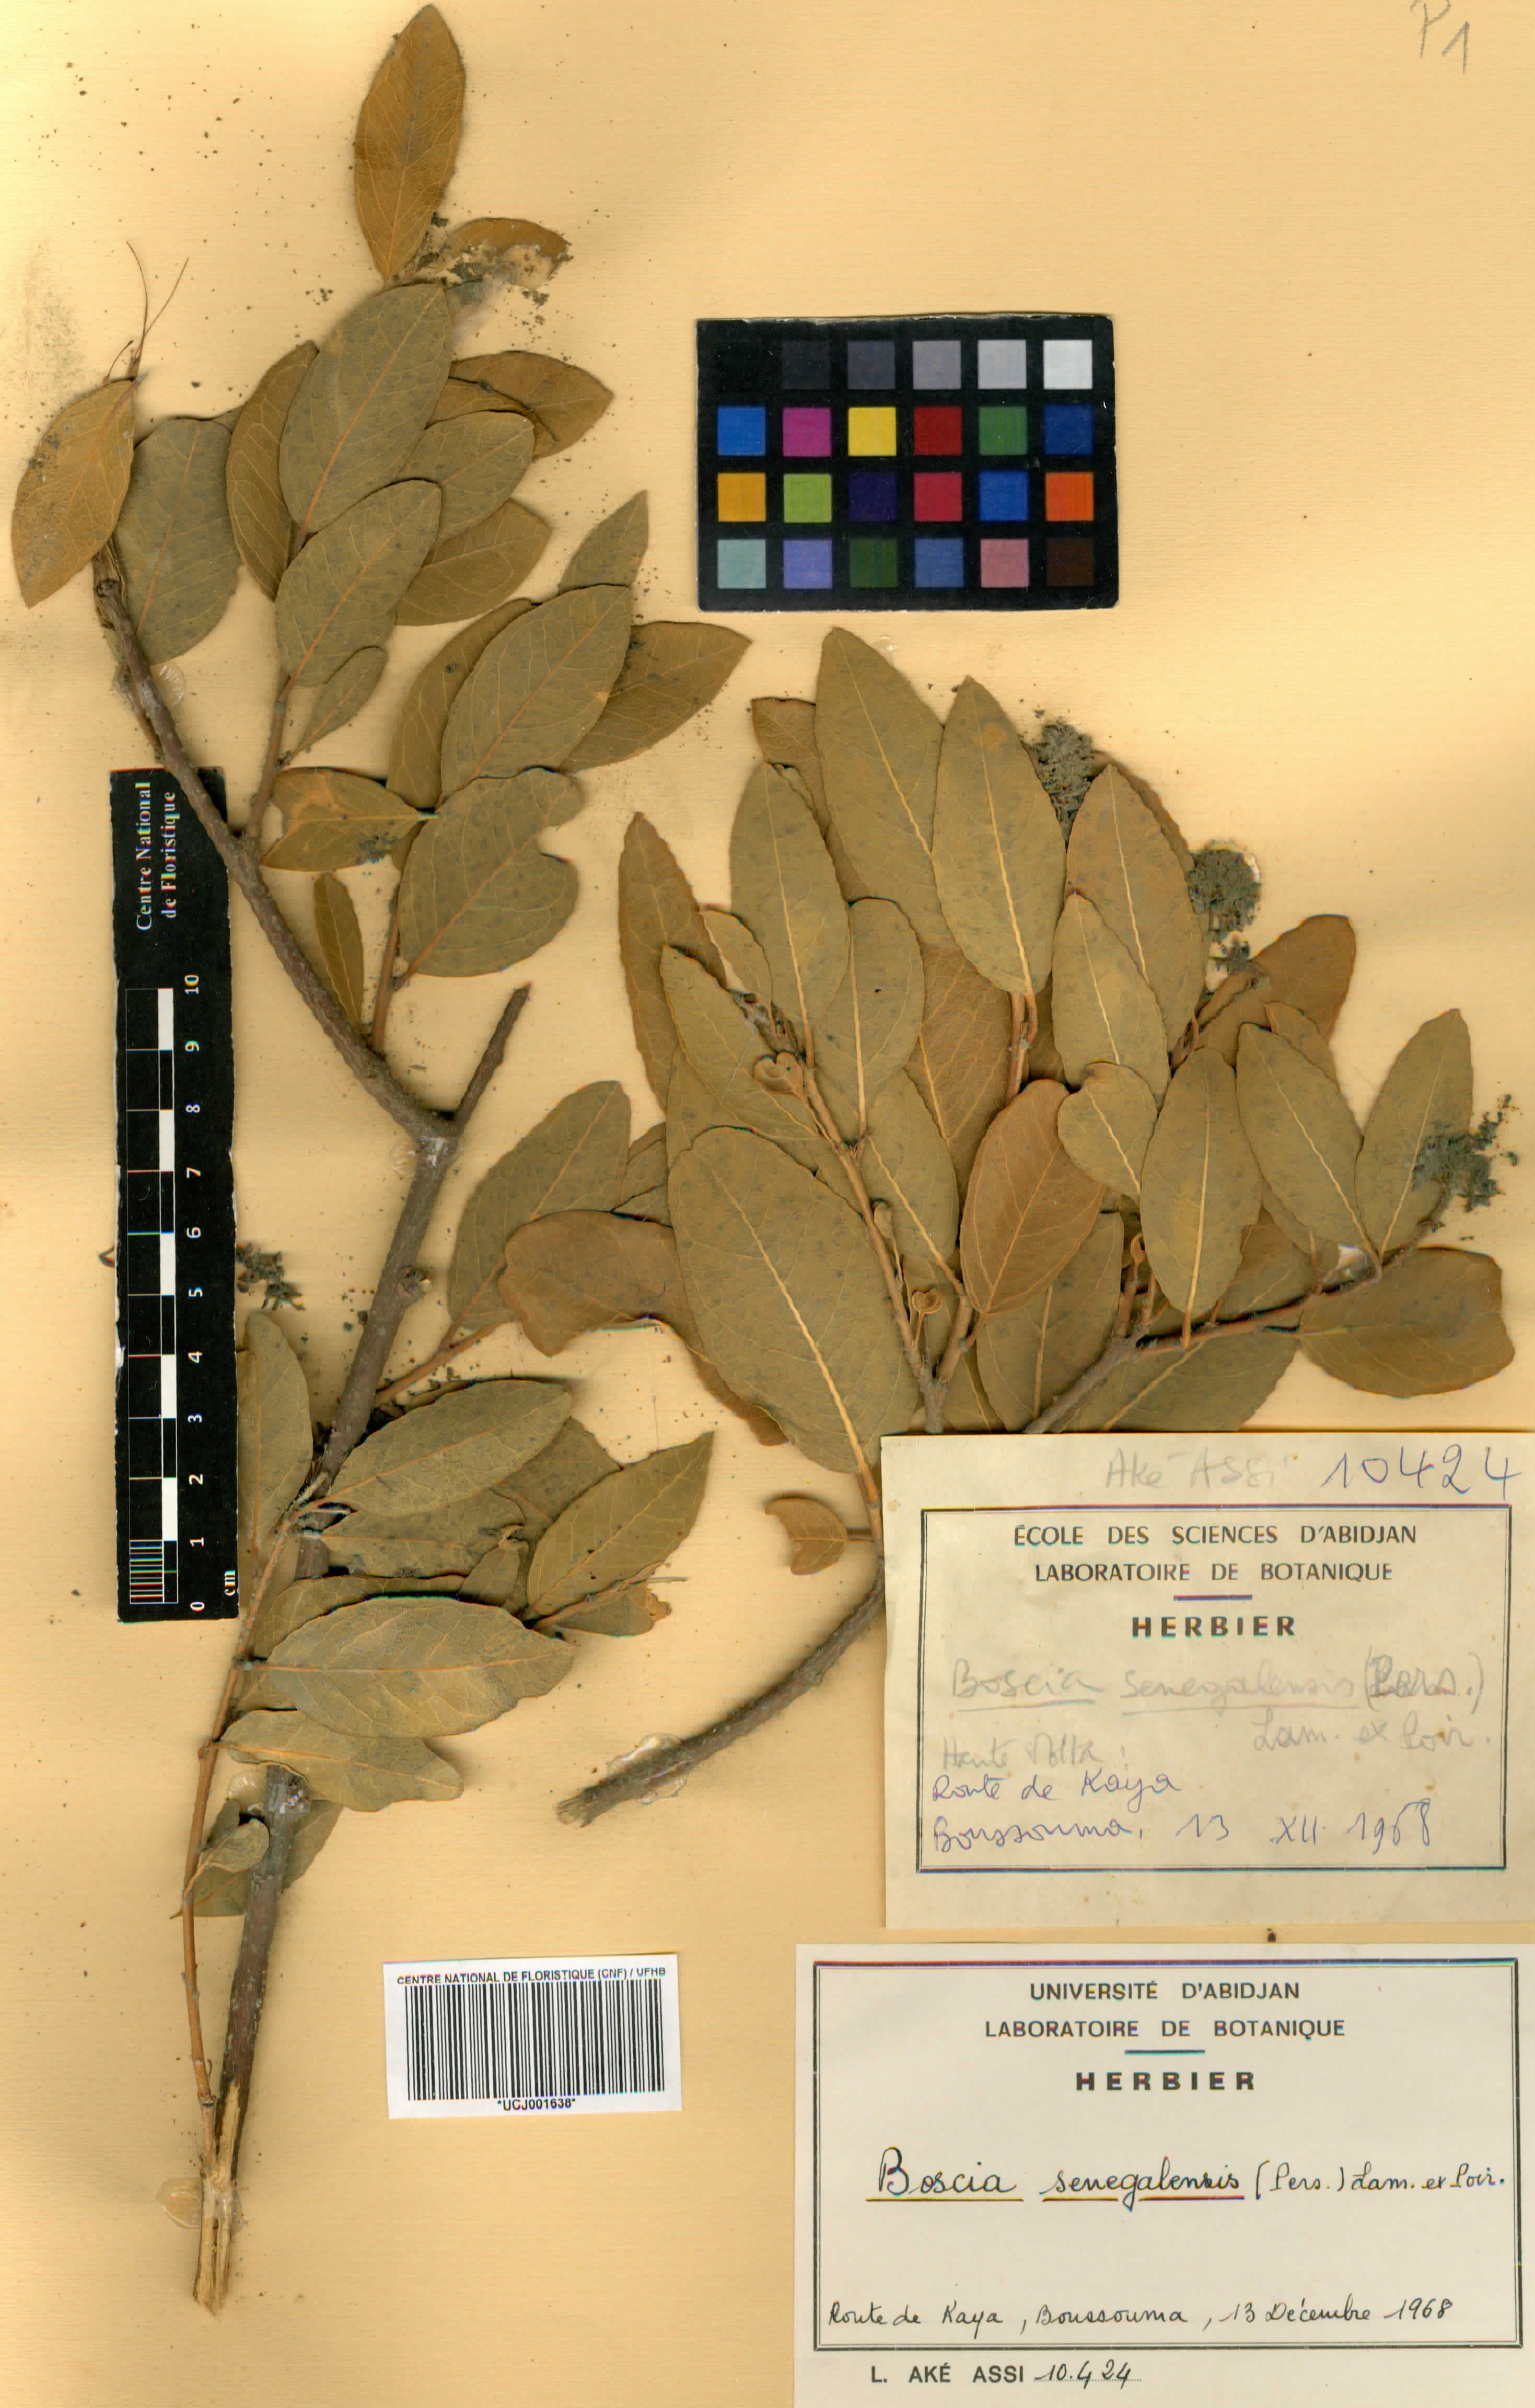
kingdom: Plantae
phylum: Tracheophyta
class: Magnoliopsida
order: Brassicales
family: Capparaceae
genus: Boscia
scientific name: Boscia senegalensis
